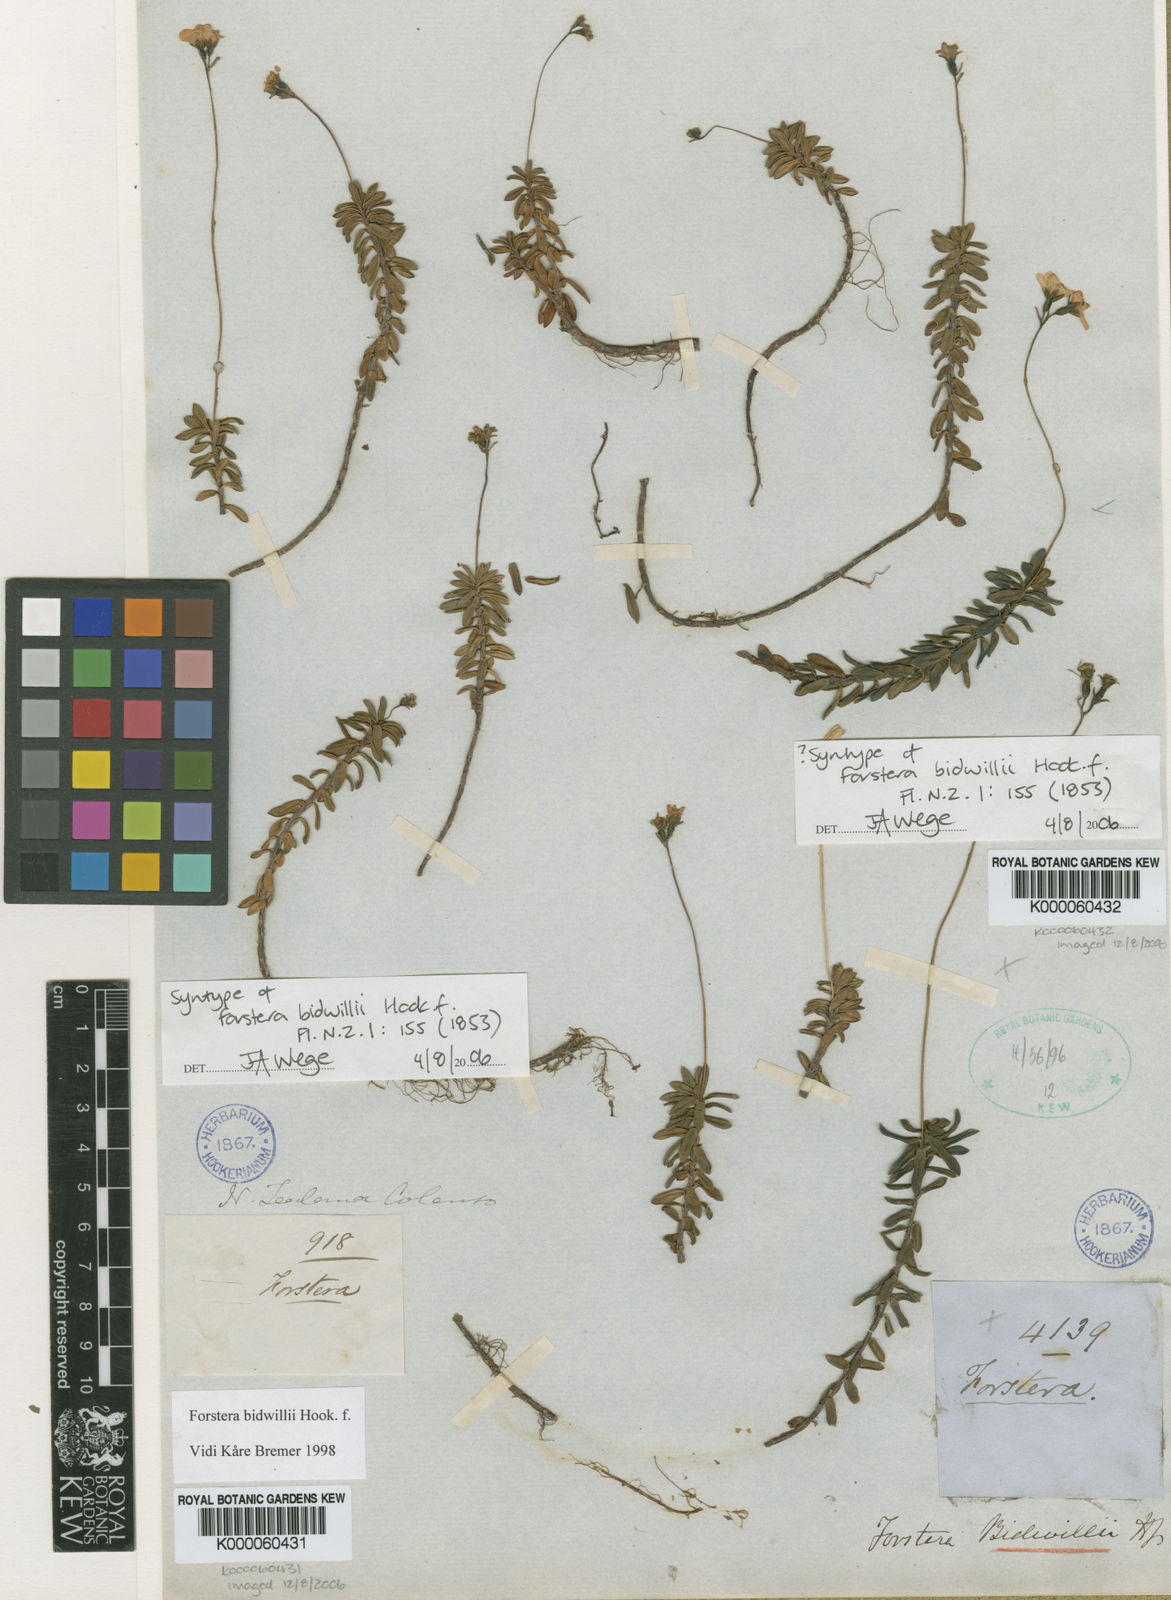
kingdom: Plantae
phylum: Tracheophyta
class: Magnoliopsida
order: Asterales
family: Stylidiaceae
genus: Forstera
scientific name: Forstera tenella
